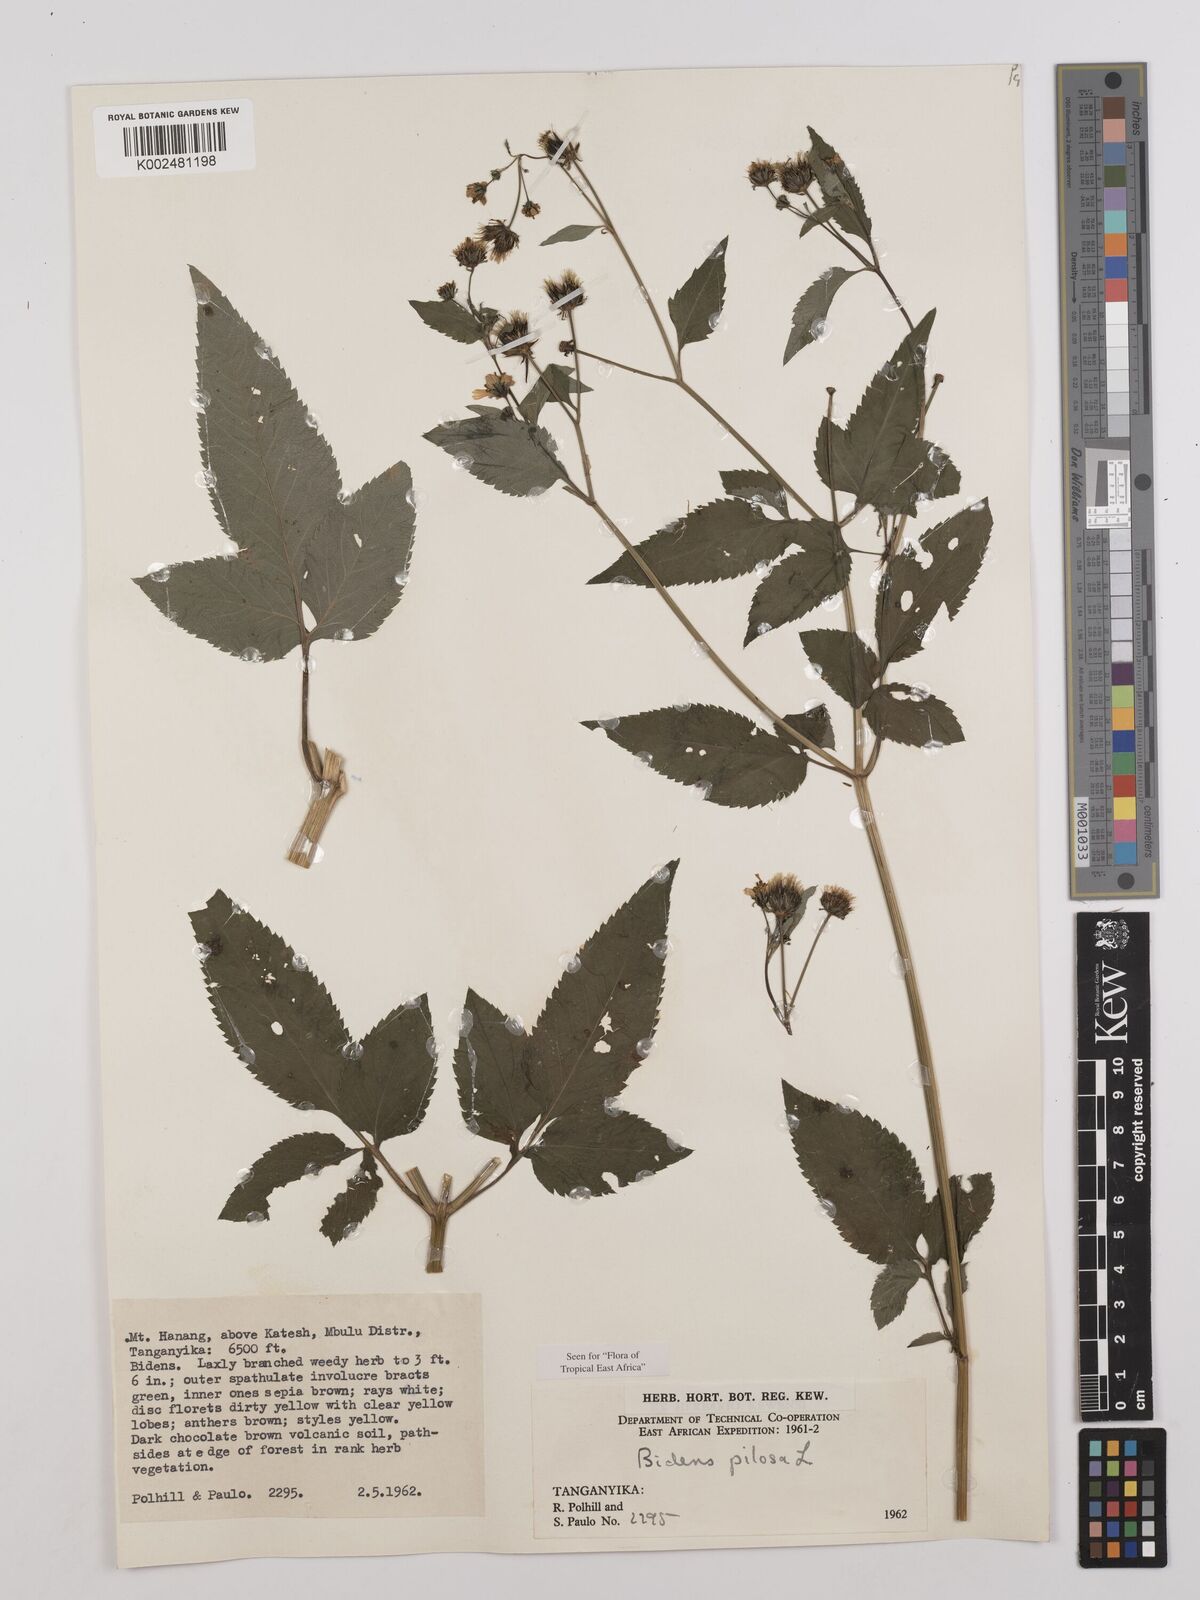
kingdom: Plantae
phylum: Tracheophyta
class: Magnoliopsida
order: Asterales
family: Asteraceae
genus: Bidens
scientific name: Bidens pilosa
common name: Black-jack
